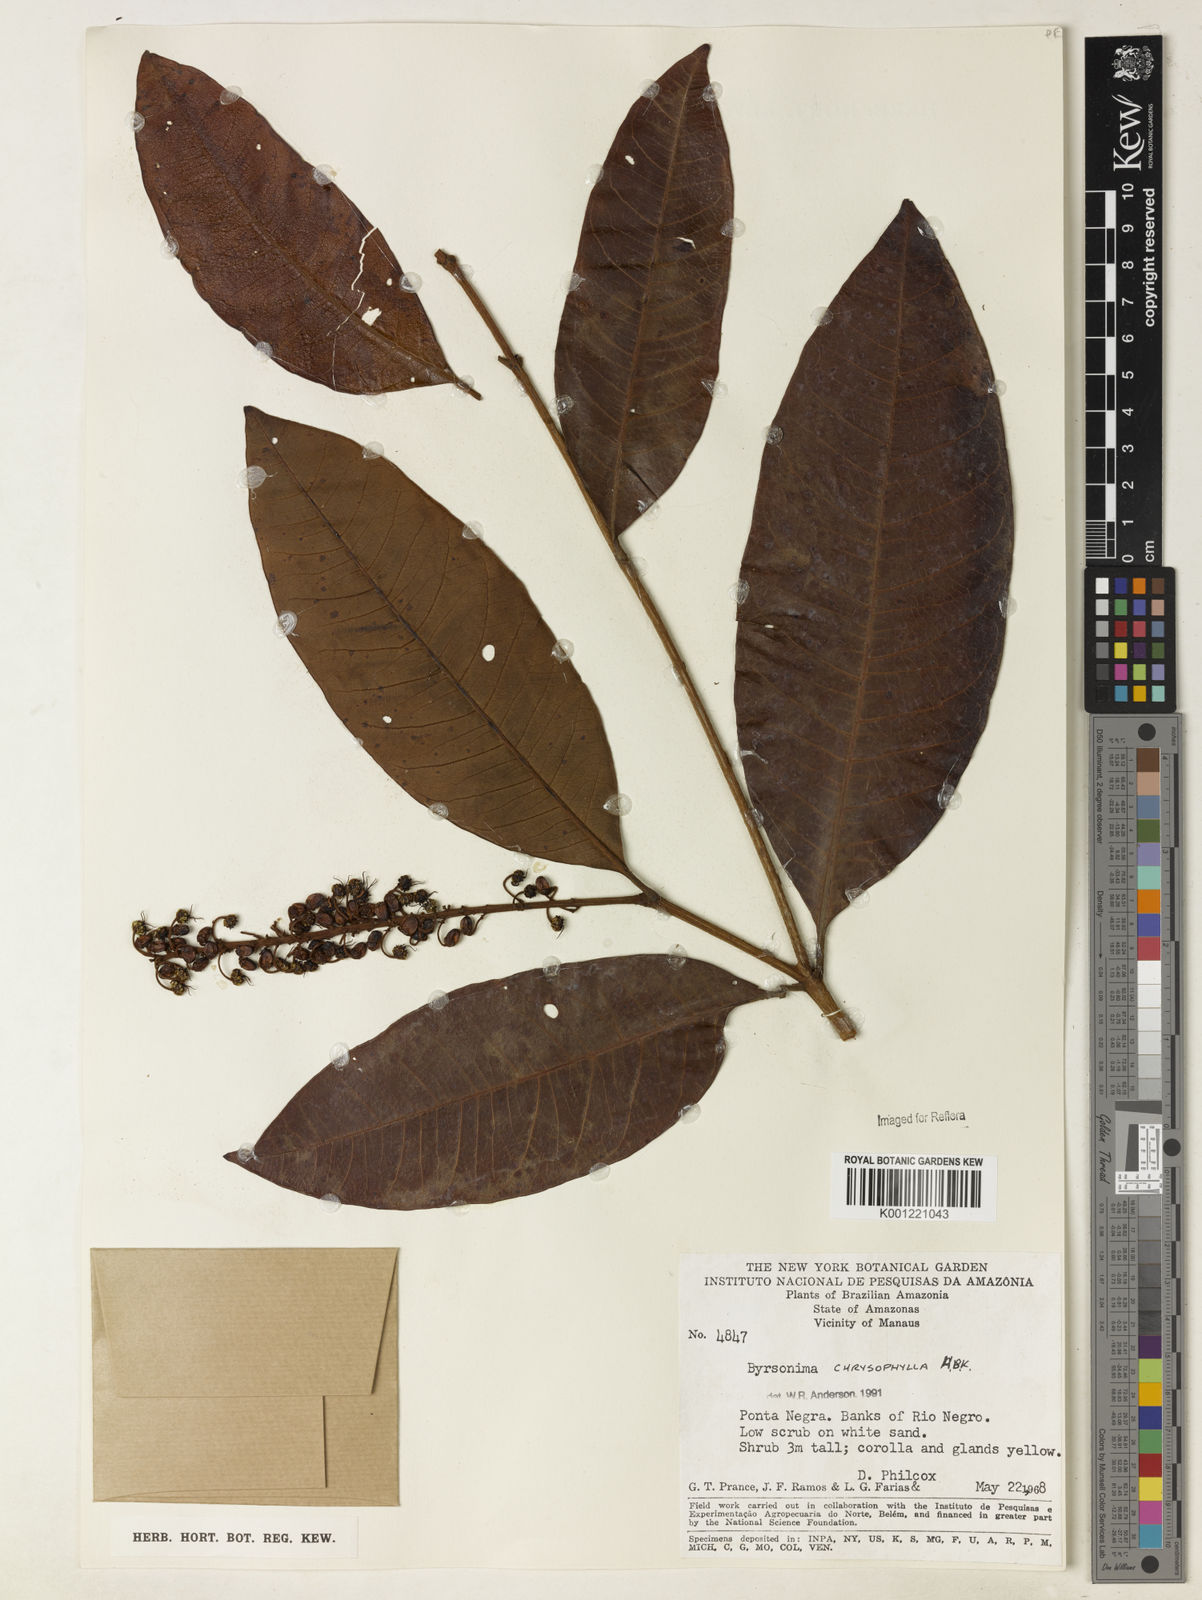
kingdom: Plantae
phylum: Tracheophyta
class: Magnoliopsida
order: Malpighiales
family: Malpighiaceae
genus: Byrsonima
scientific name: Byrsonima chrysophylla
